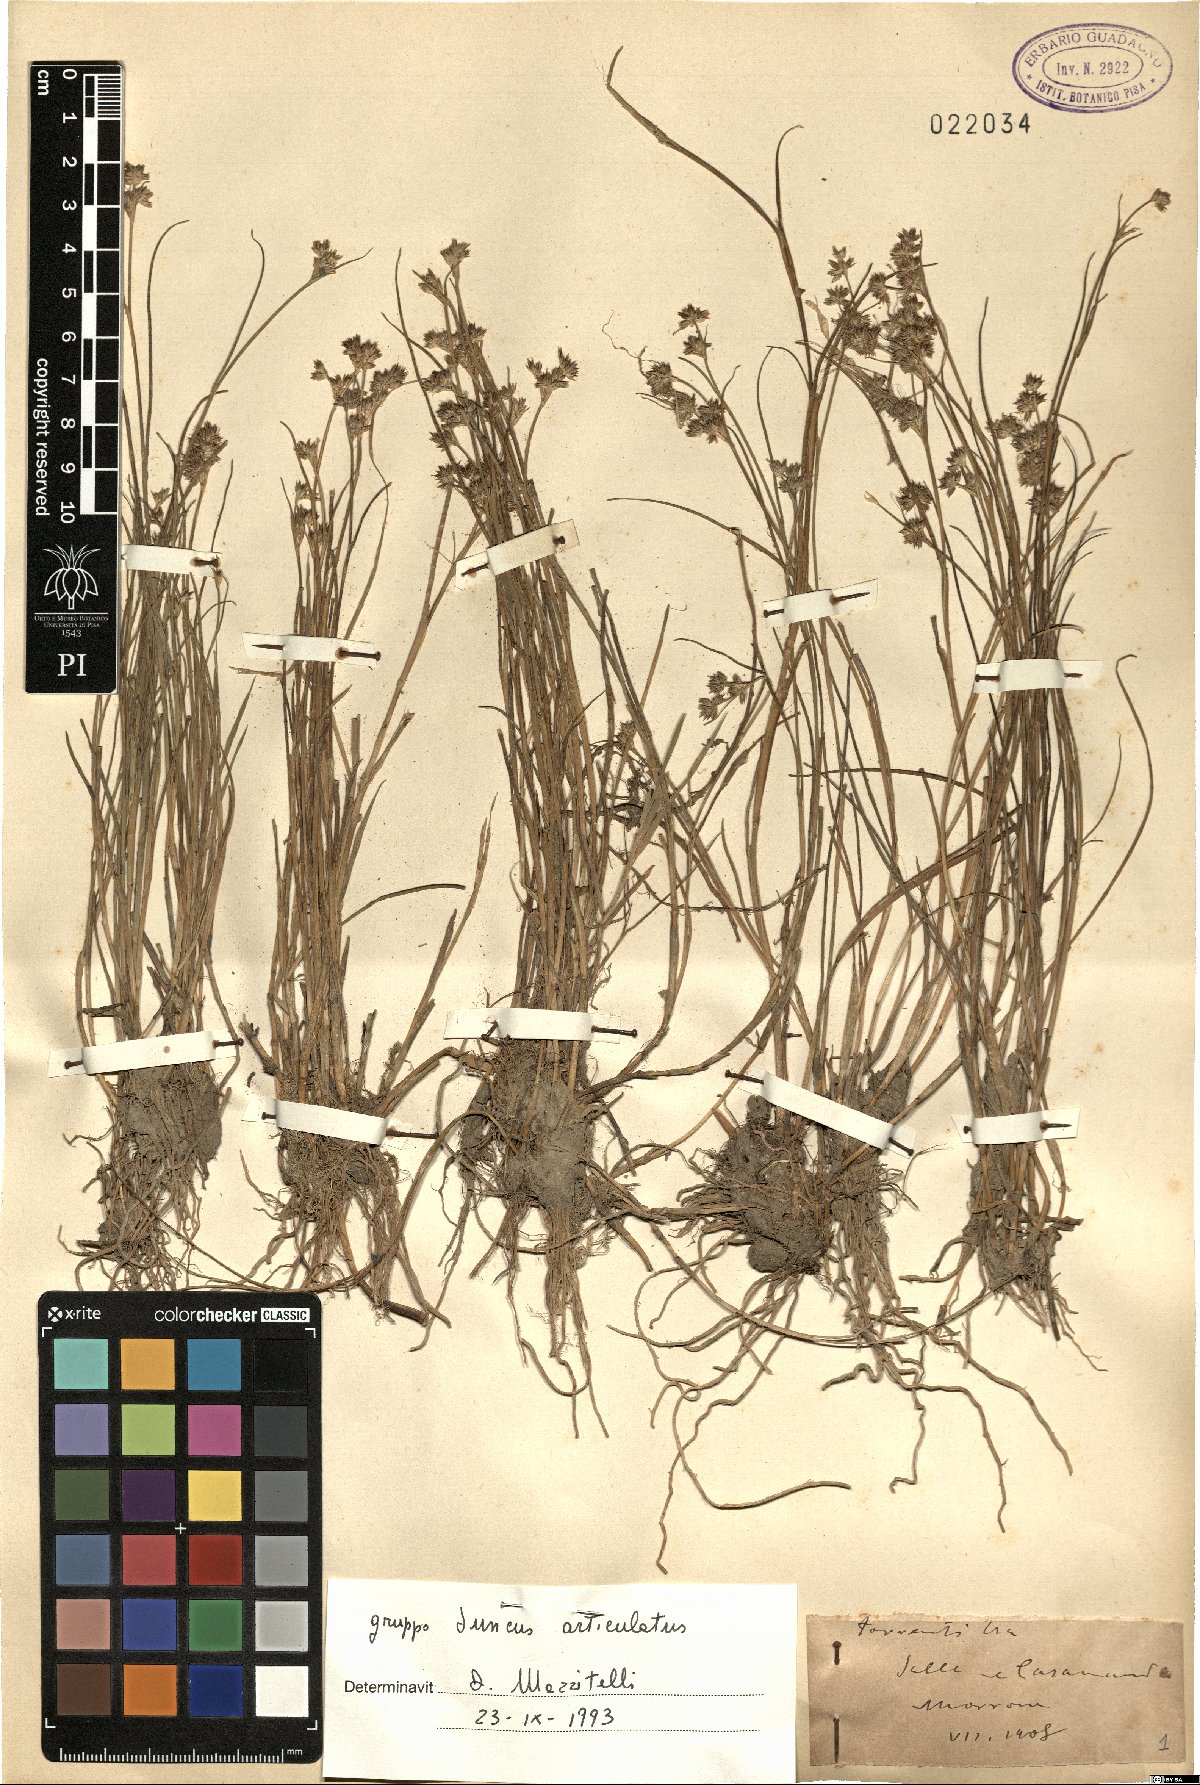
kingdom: Plantae
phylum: Tracheophyta
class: Liliopsida
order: Poales
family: Juncaceae
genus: Juncus
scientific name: Juncus articulatus
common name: Jointed rush
